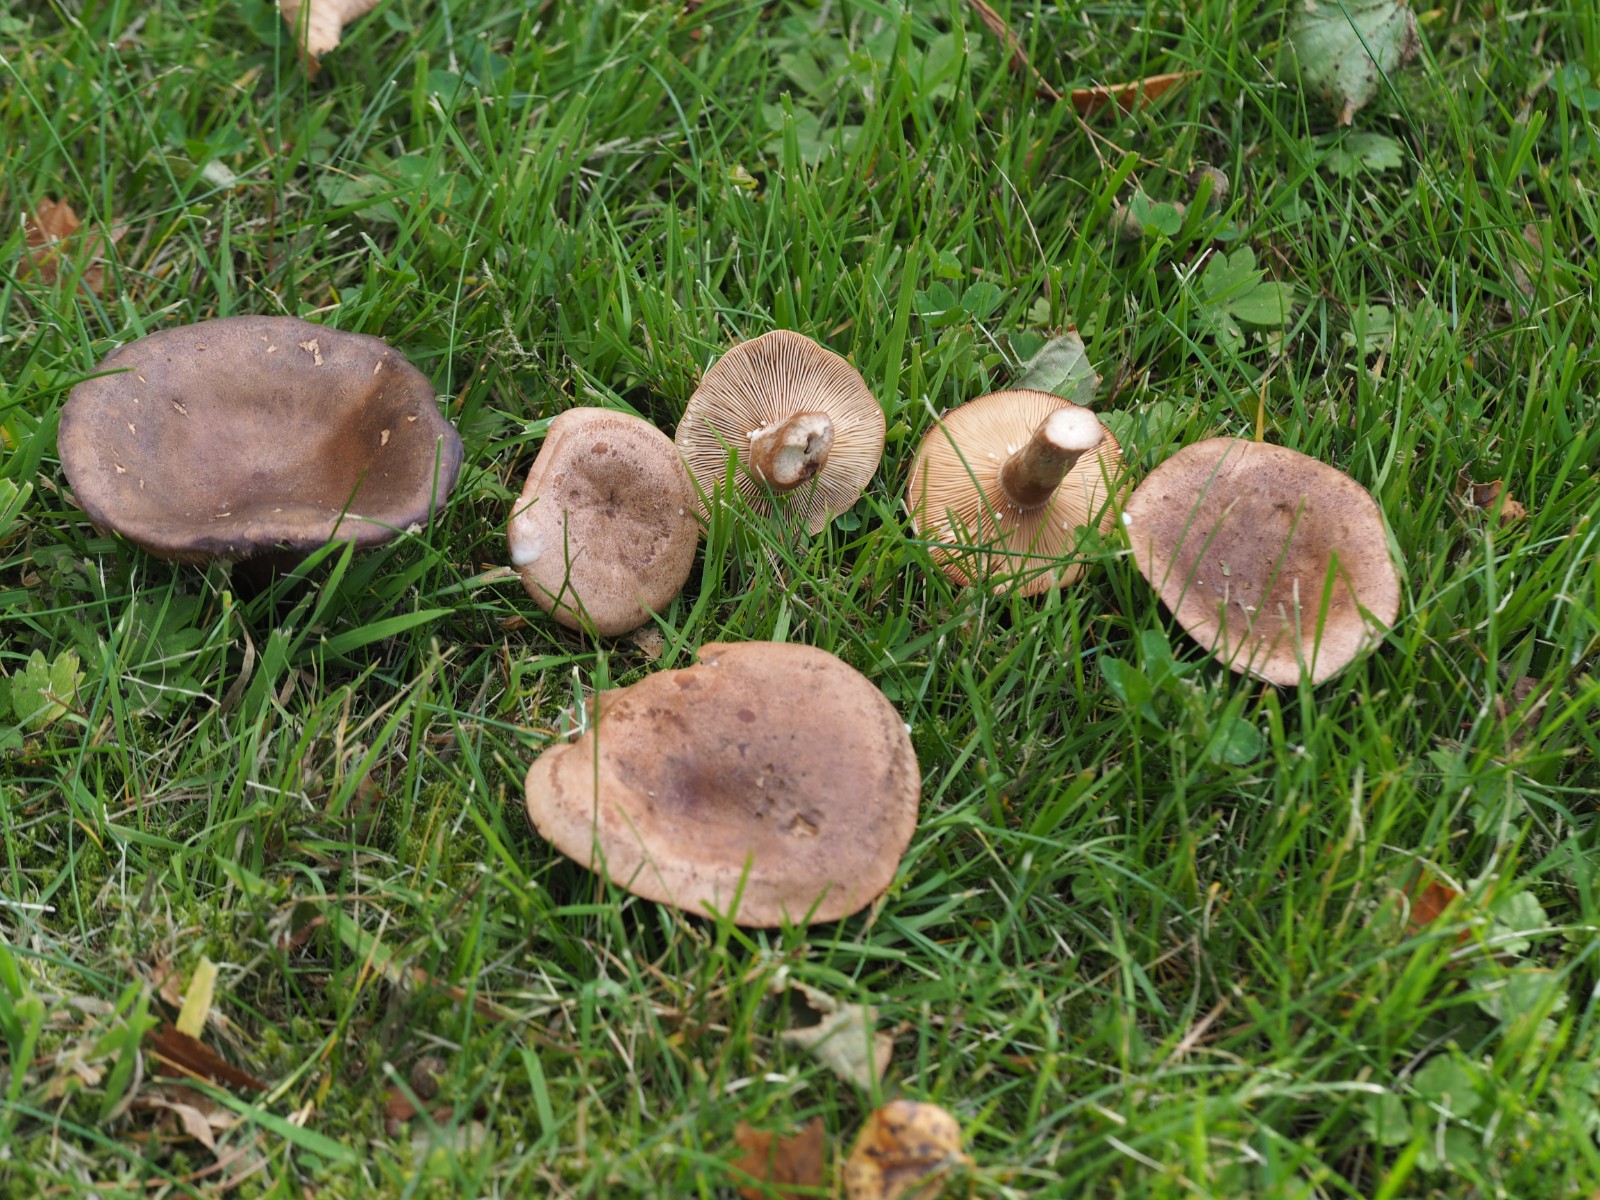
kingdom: Fungi
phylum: Basidiomycota
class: Agaricomycetes
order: Russulales
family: Russulaceae
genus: Lactarius
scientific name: Lactarius quietus
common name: ege-mælkehat
